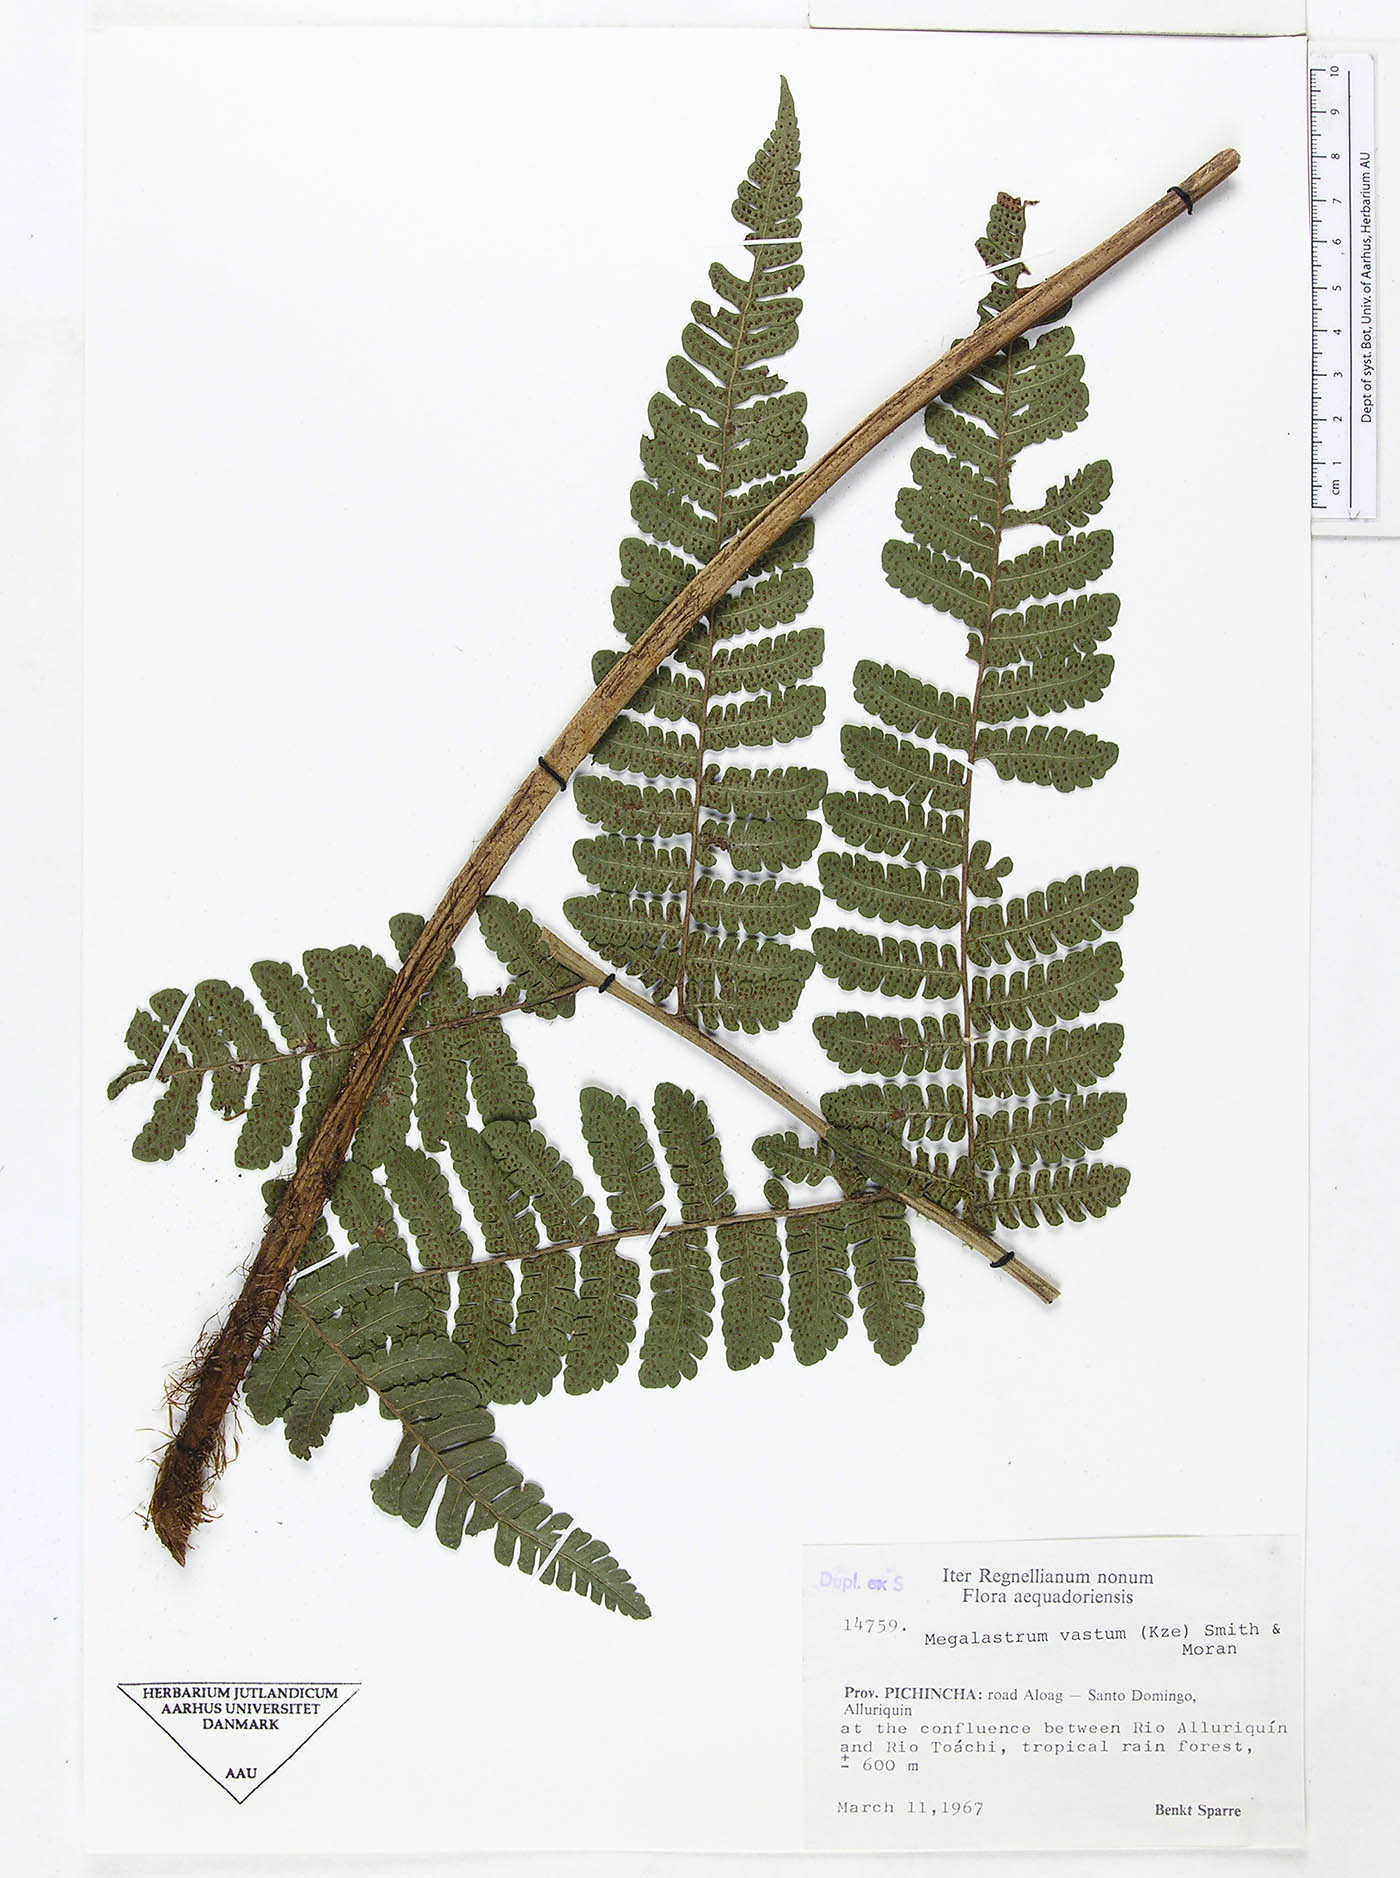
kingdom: Plantae
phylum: Tracheophyta
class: Polypodiopsida
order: Polypodiales
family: Dryopteridaceae
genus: Megalastrum
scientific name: Megalastrum reductum
